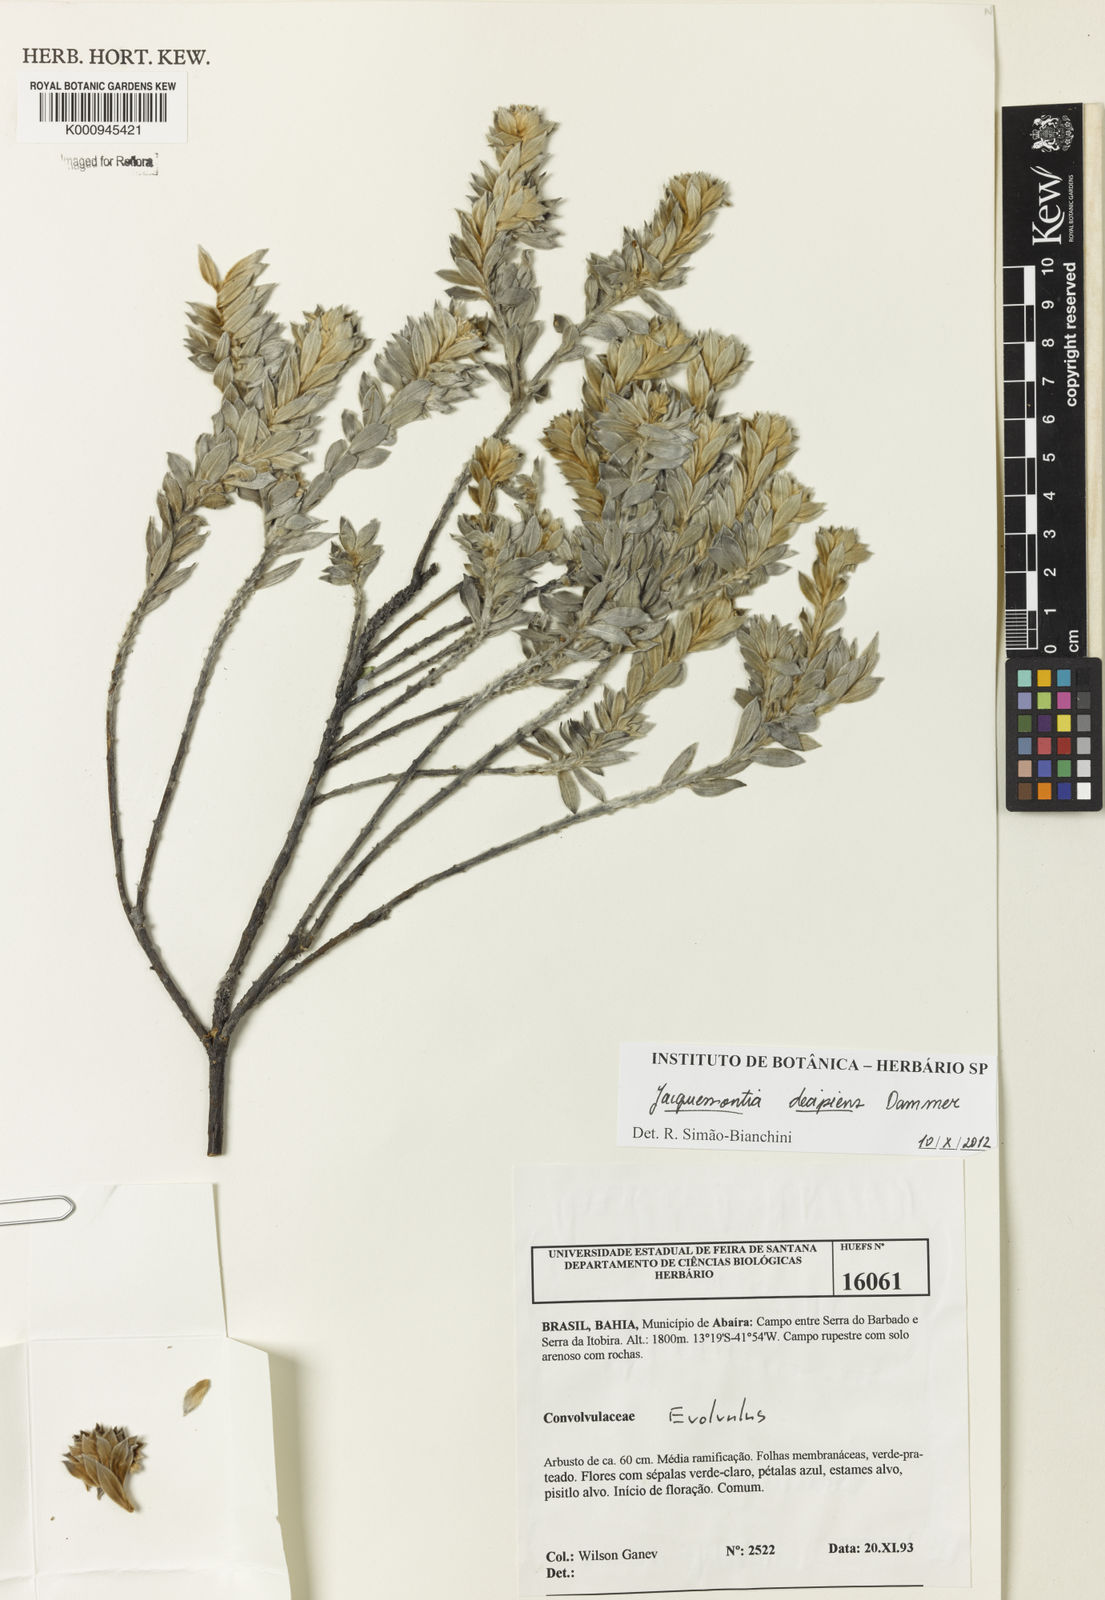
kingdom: Plantae
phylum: Tracheophyta
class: Magnoliopsida
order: Solanales
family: Convolvulaceae
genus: Jacquemontia
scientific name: Jacquemontia
